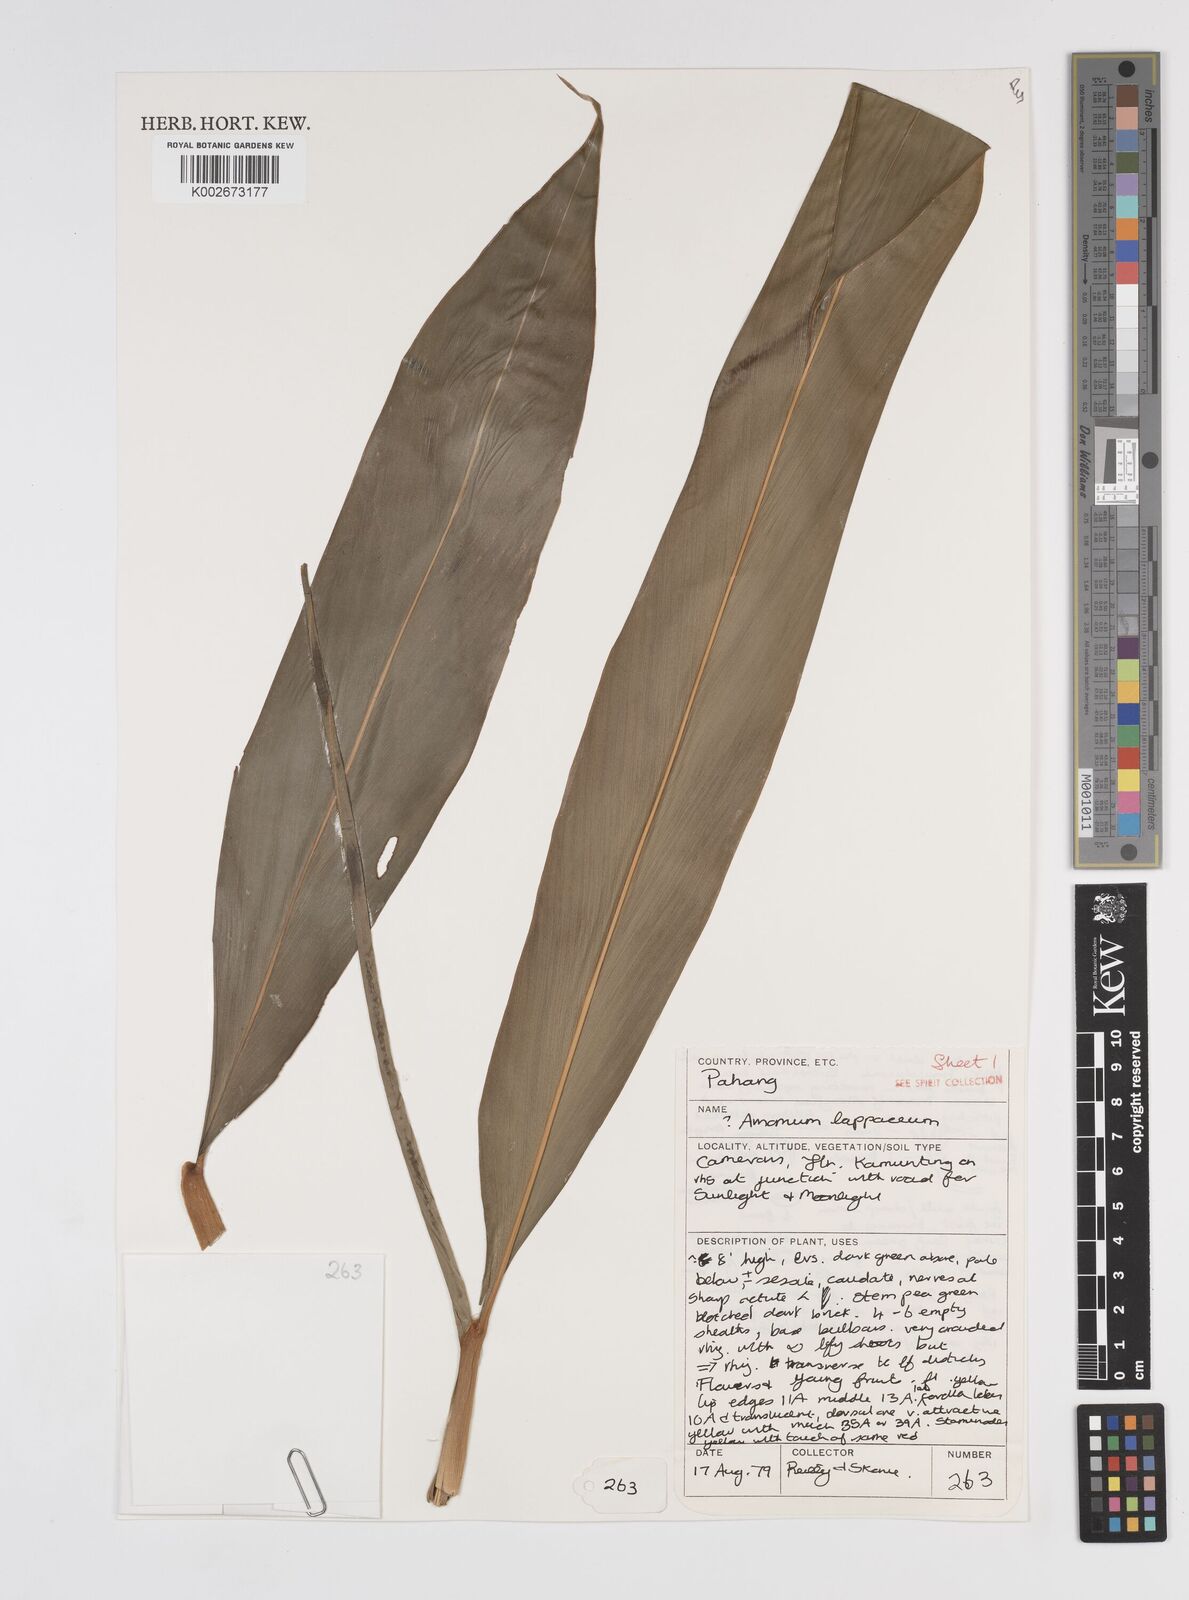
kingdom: Plantae
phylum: Tracheophyta
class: Liliopsida
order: Zingiberales
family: Zingiberaceae
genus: Meistera
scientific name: Meistera lappacea
